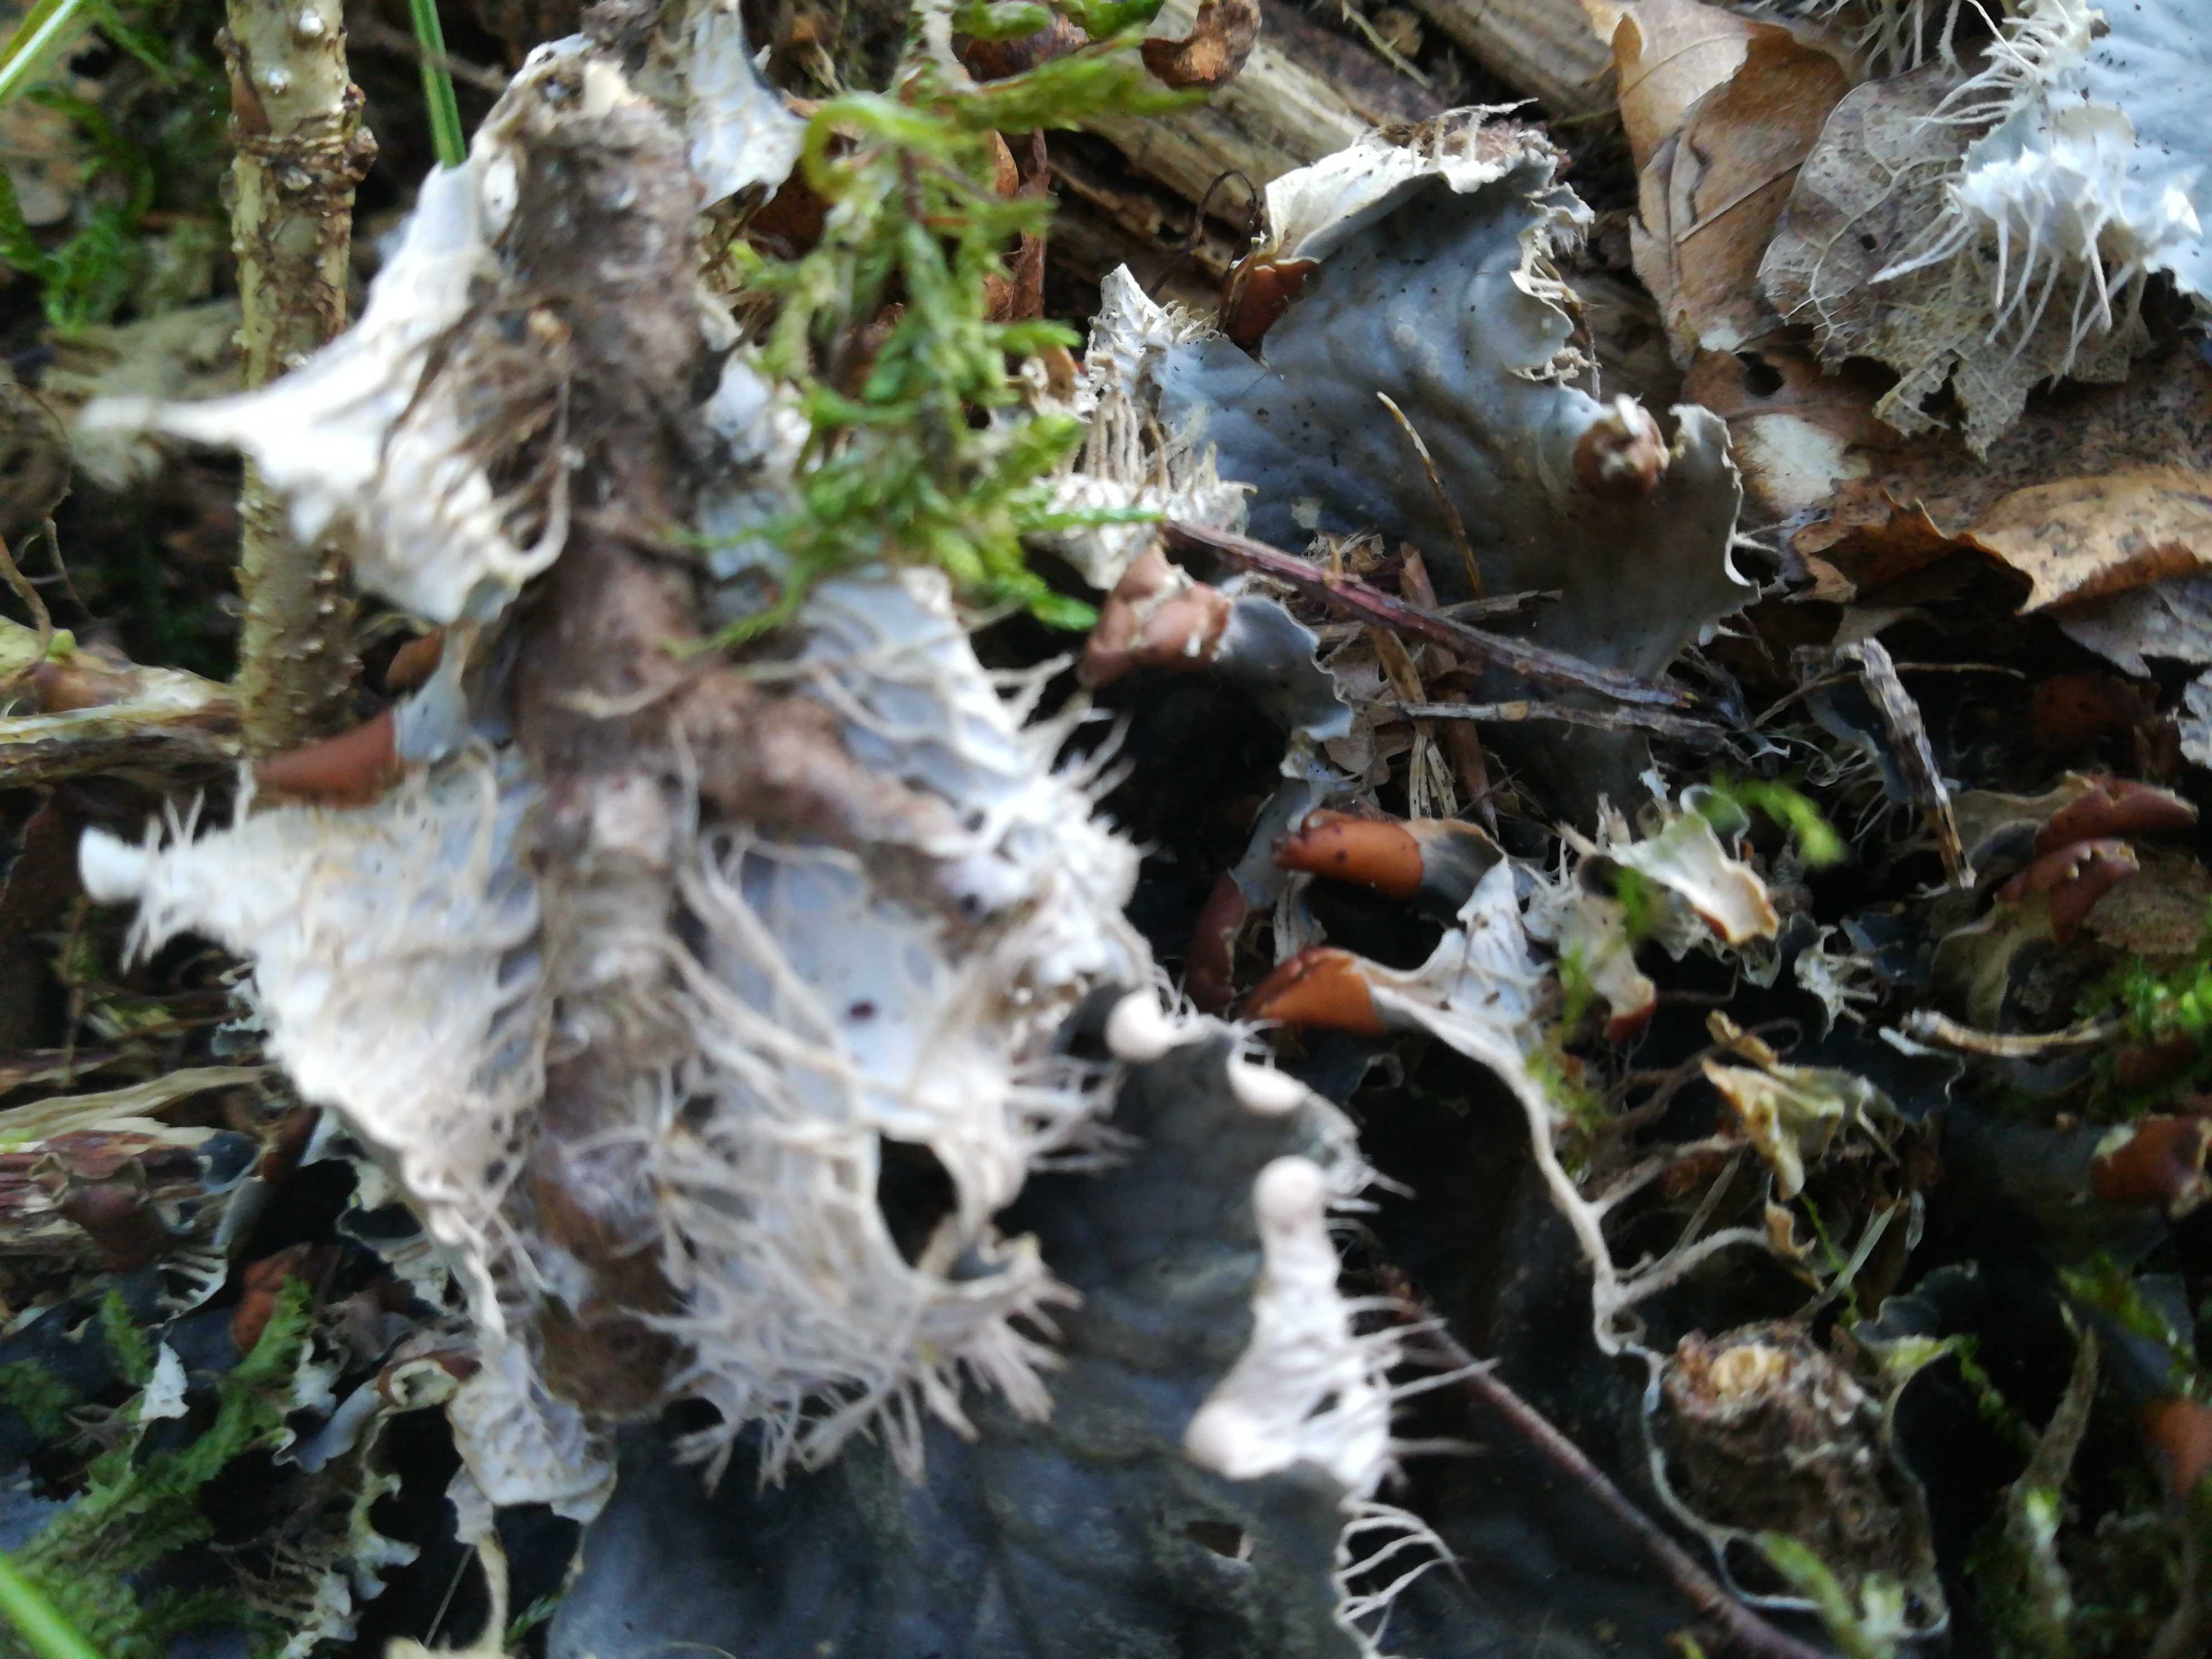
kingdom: Fungi
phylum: Ascomycota
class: Lecanoromycetes
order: Peltigerales
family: Peltigeraceae
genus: Peltigera
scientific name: Peltigera membranacea
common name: tynd skjoldlav
